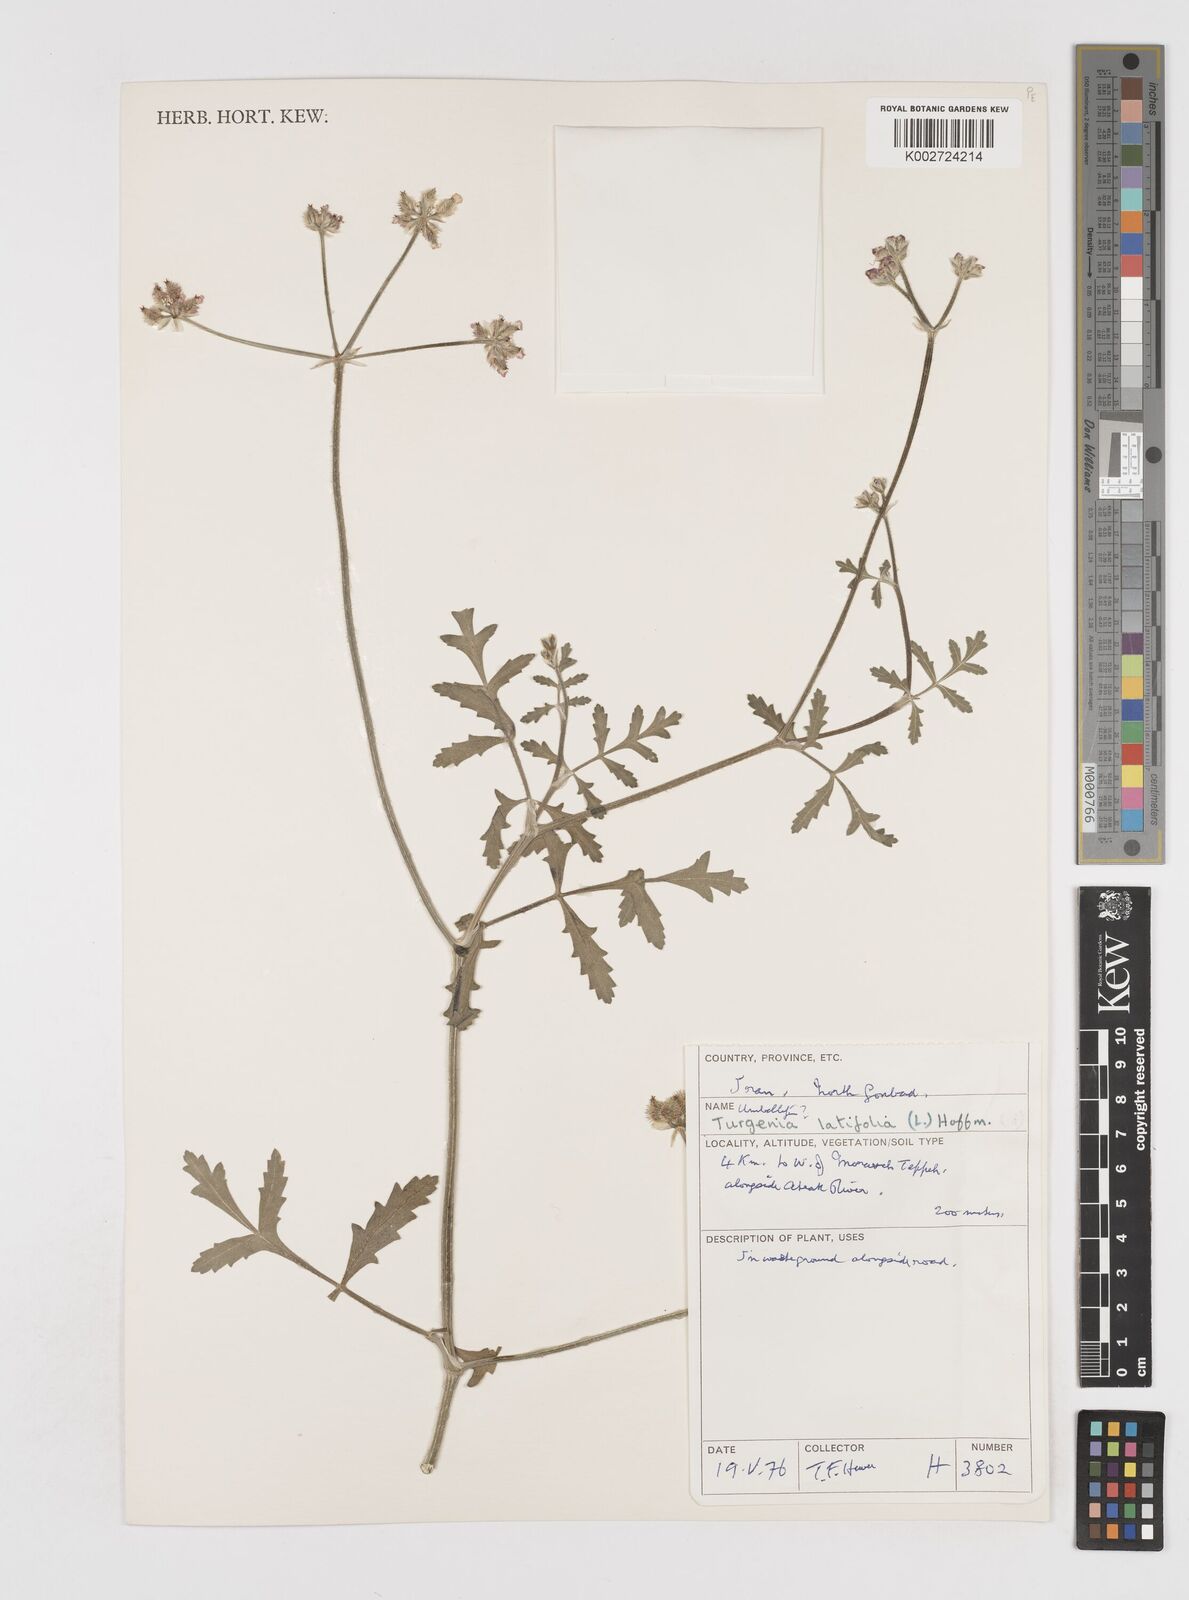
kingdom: Plantae
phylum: Tracheophyta
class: Magnoliopsida
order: Apiales
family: Apiaceae
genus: Turgenia
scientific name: Turgenia latifolia
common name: Greater bur-parsley
